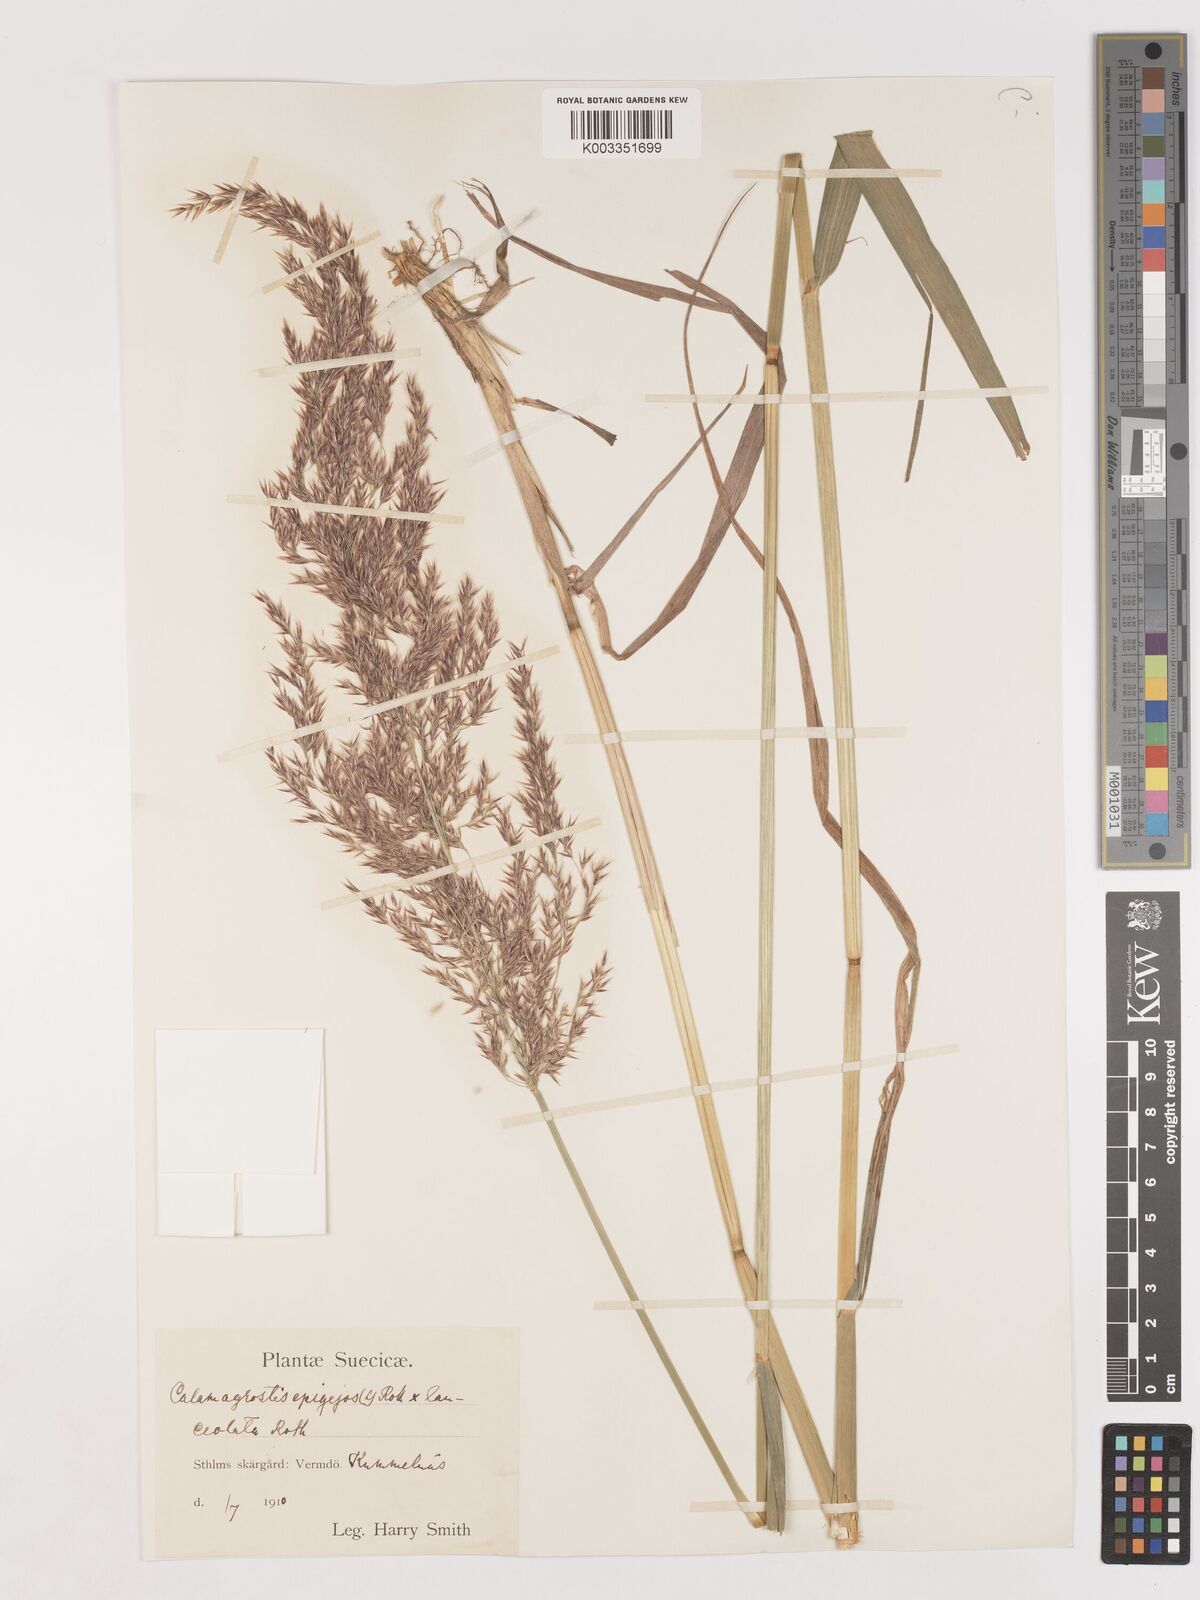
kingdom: Plantae
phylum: Tracheophyta
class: Liliopsida
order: Poales
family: Poaceae
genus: Calamagrostis
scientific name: Calamagrostis canescens
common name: Purple small-reed
